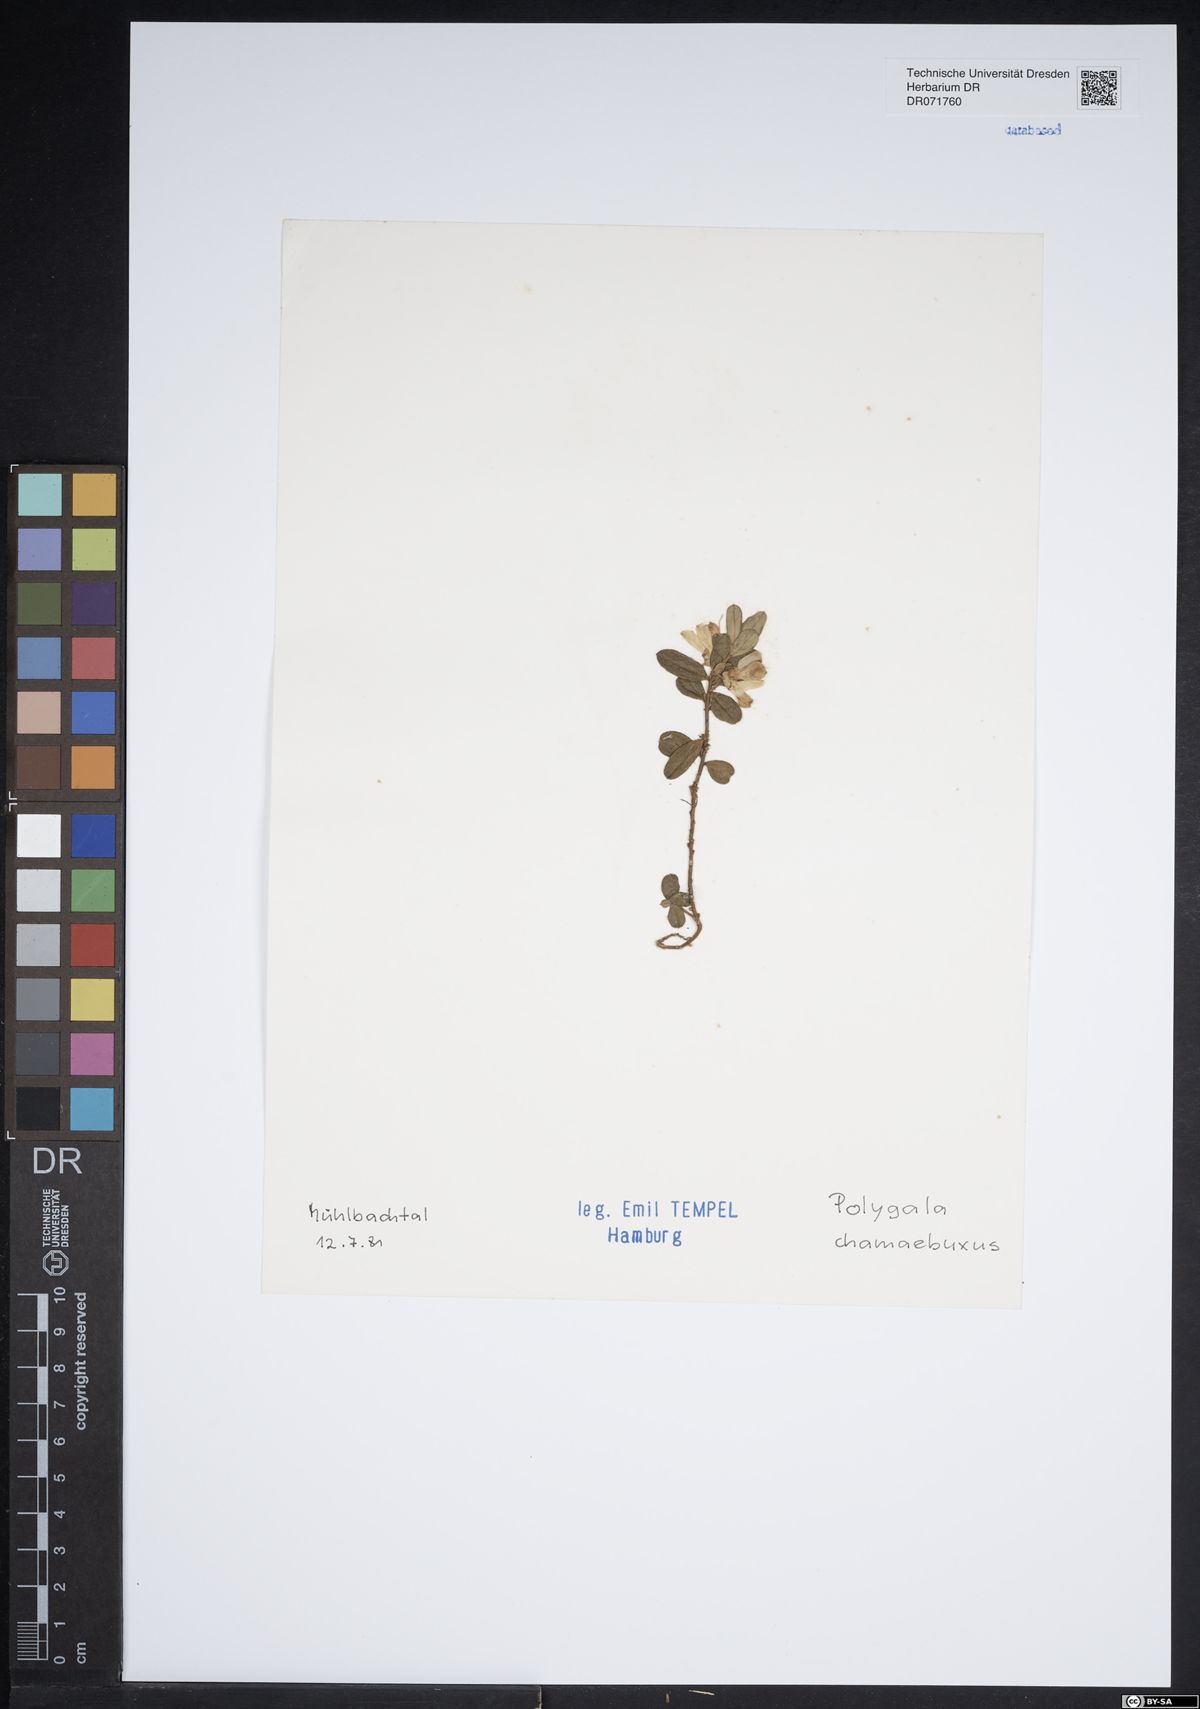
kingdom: Plantae
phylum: Tracheophyta
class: Magnoliopsida
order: Fabales
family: Polygalaceae
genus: Polygaloides
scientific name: Polygaloides chamaebuxus
